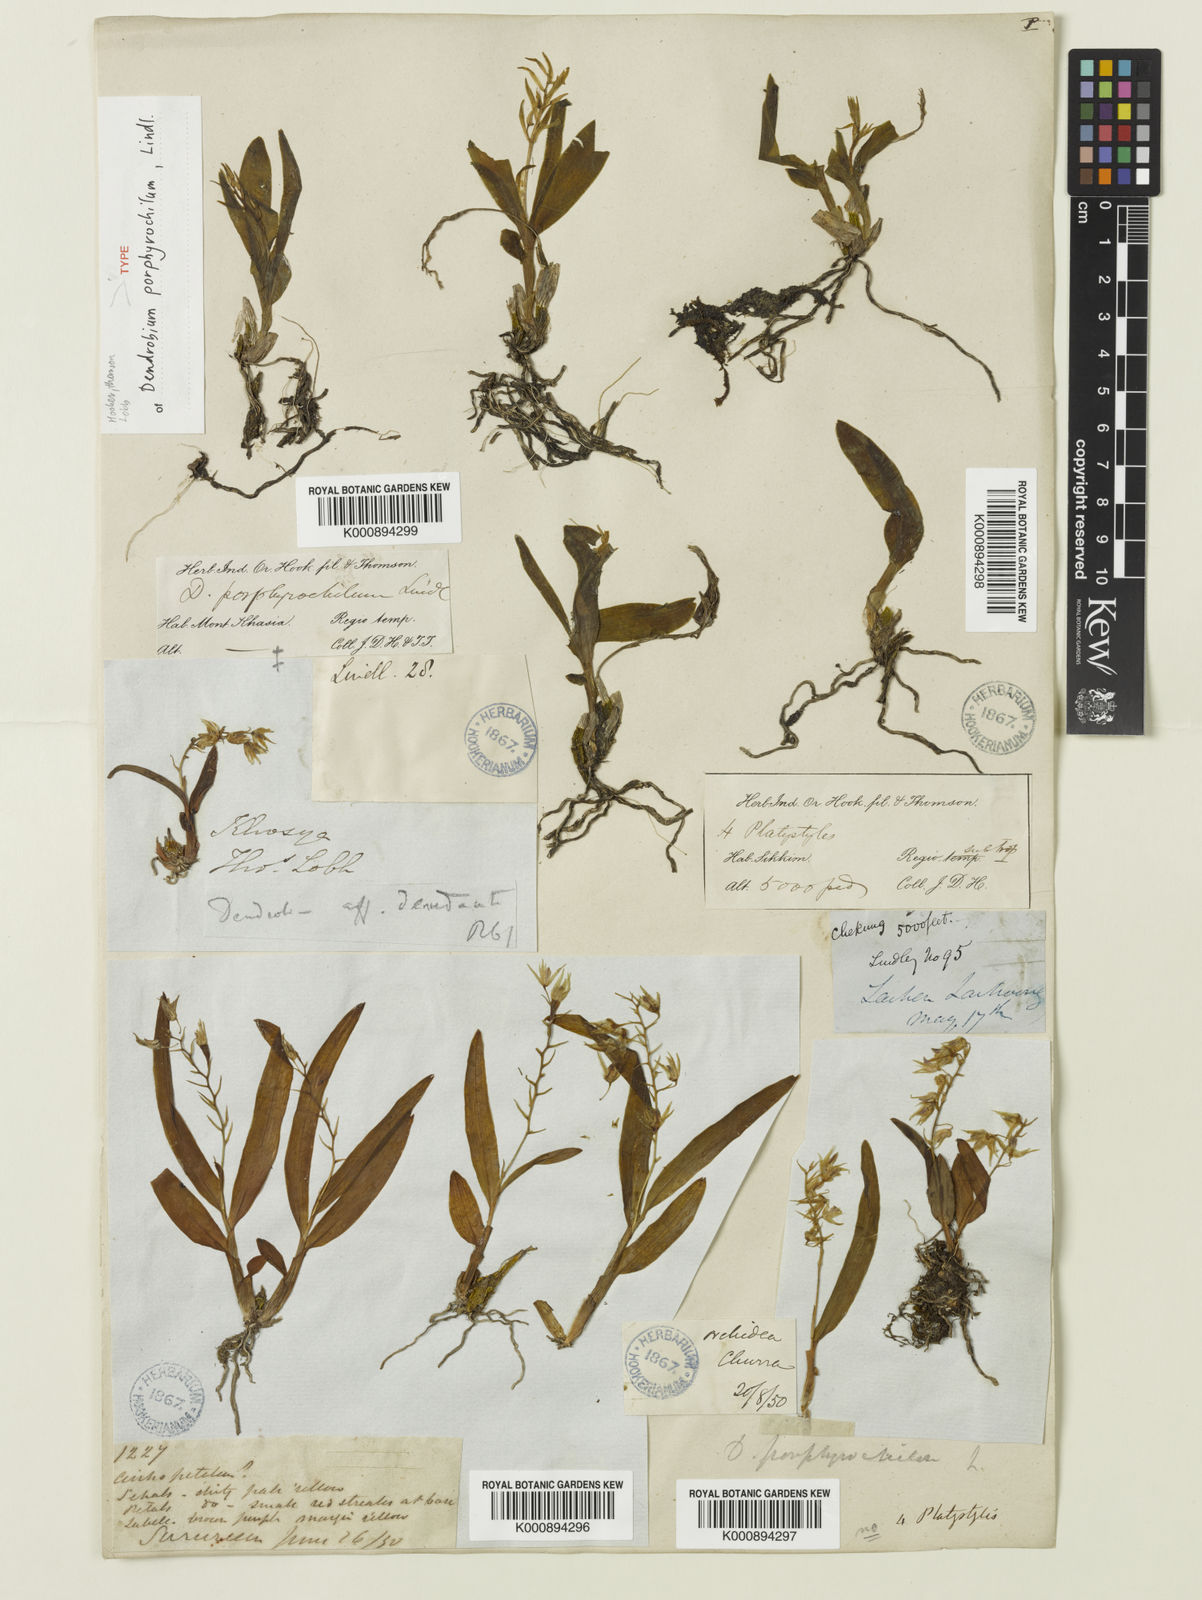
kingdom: Plantae
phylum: Tracheophyta
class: Liliopsida
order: Asparagales
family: Orchidaceae
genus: Dendrobium
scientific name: Dendrobium porphyrochilum
